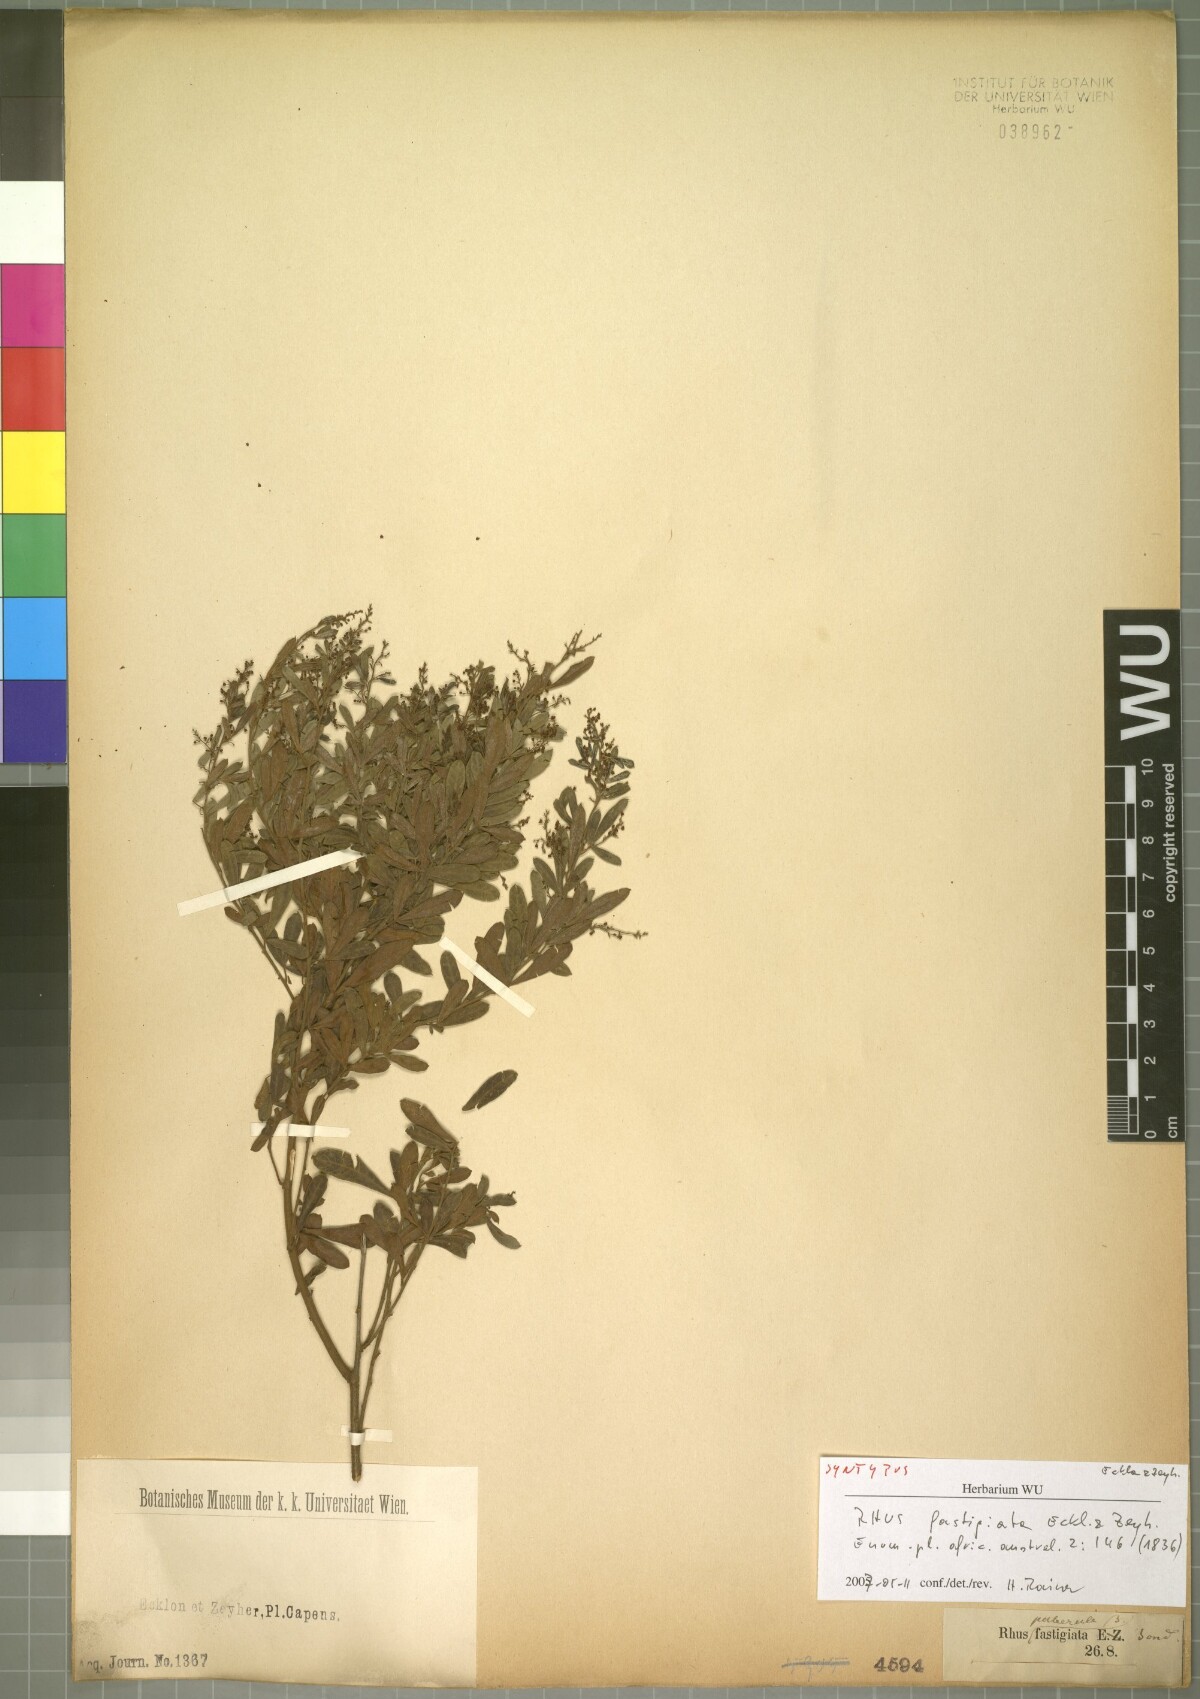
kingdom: Plantae
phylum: Tracheophyta
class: Magnoliopsida
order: Sapindales
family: Anacardiaceae
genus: Searsia
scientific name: Searsia fastigiata
